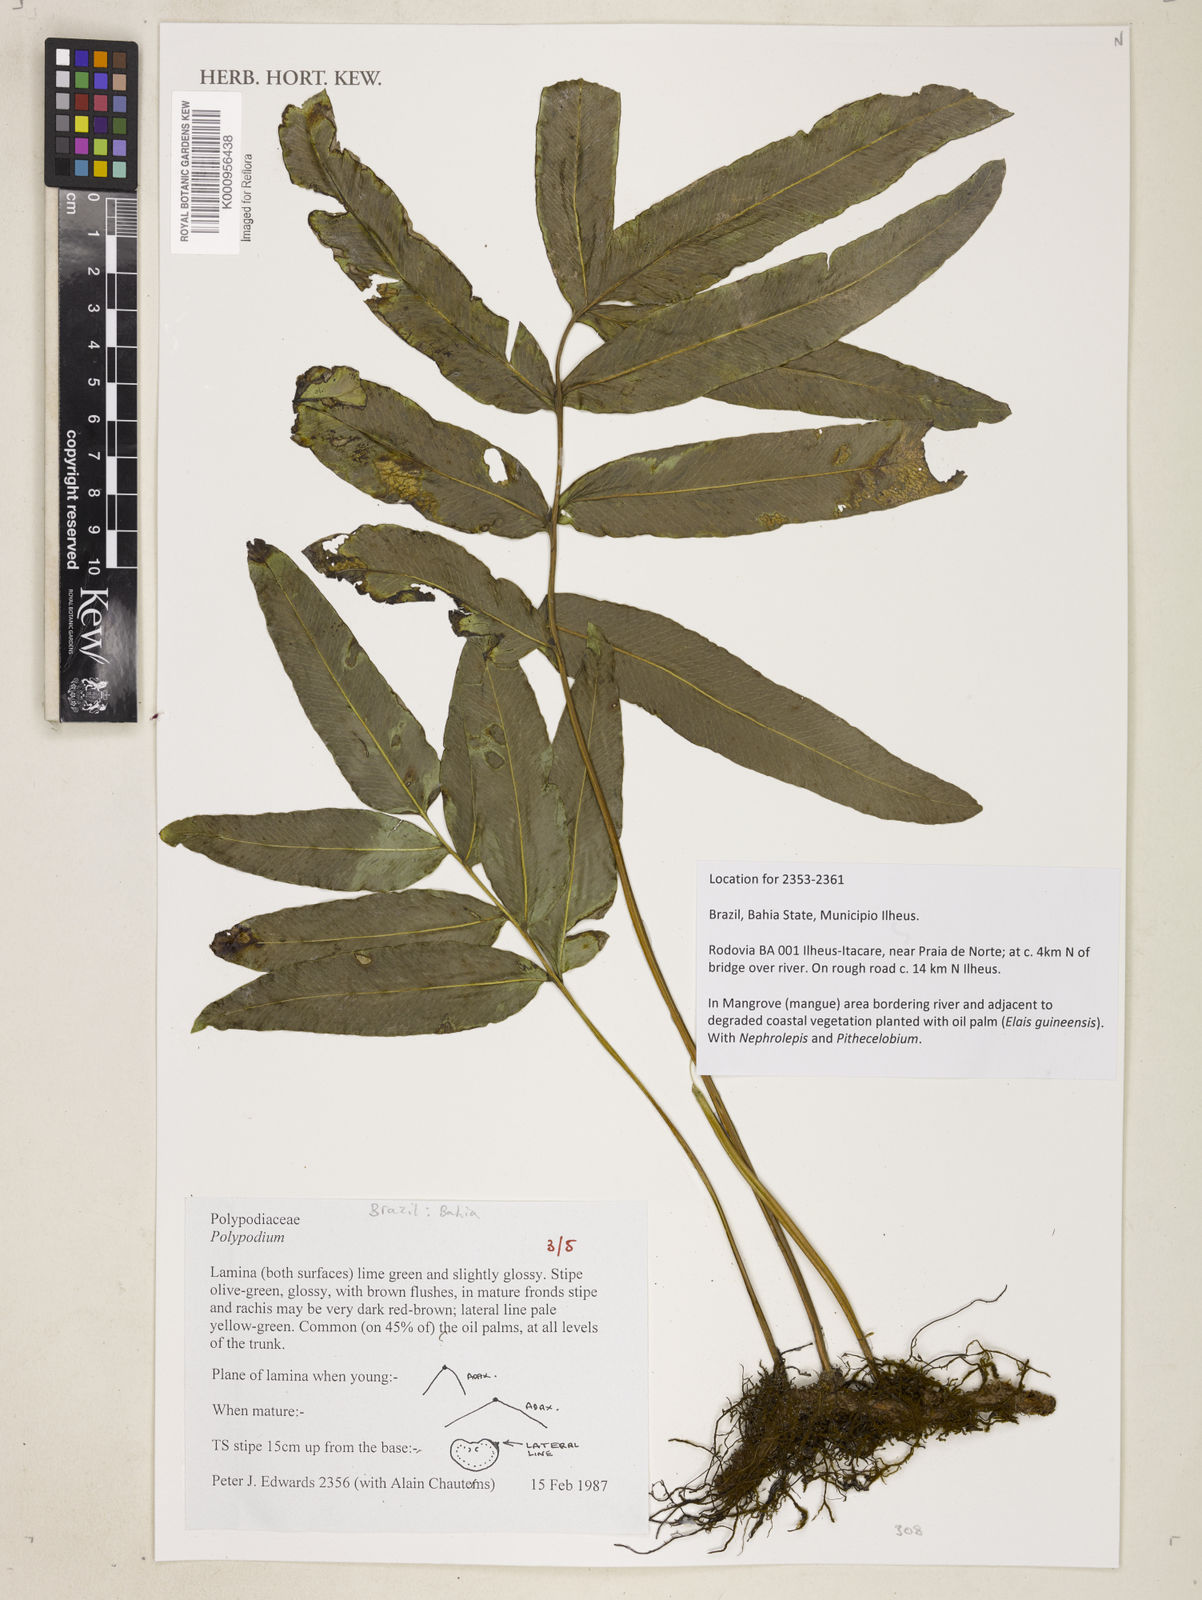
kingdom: Plantae
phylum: Tracheophyta
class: Polypodiopsida
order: Polypodiales
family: Polypodiaceae
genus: Polypodium
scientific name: Polypodium
